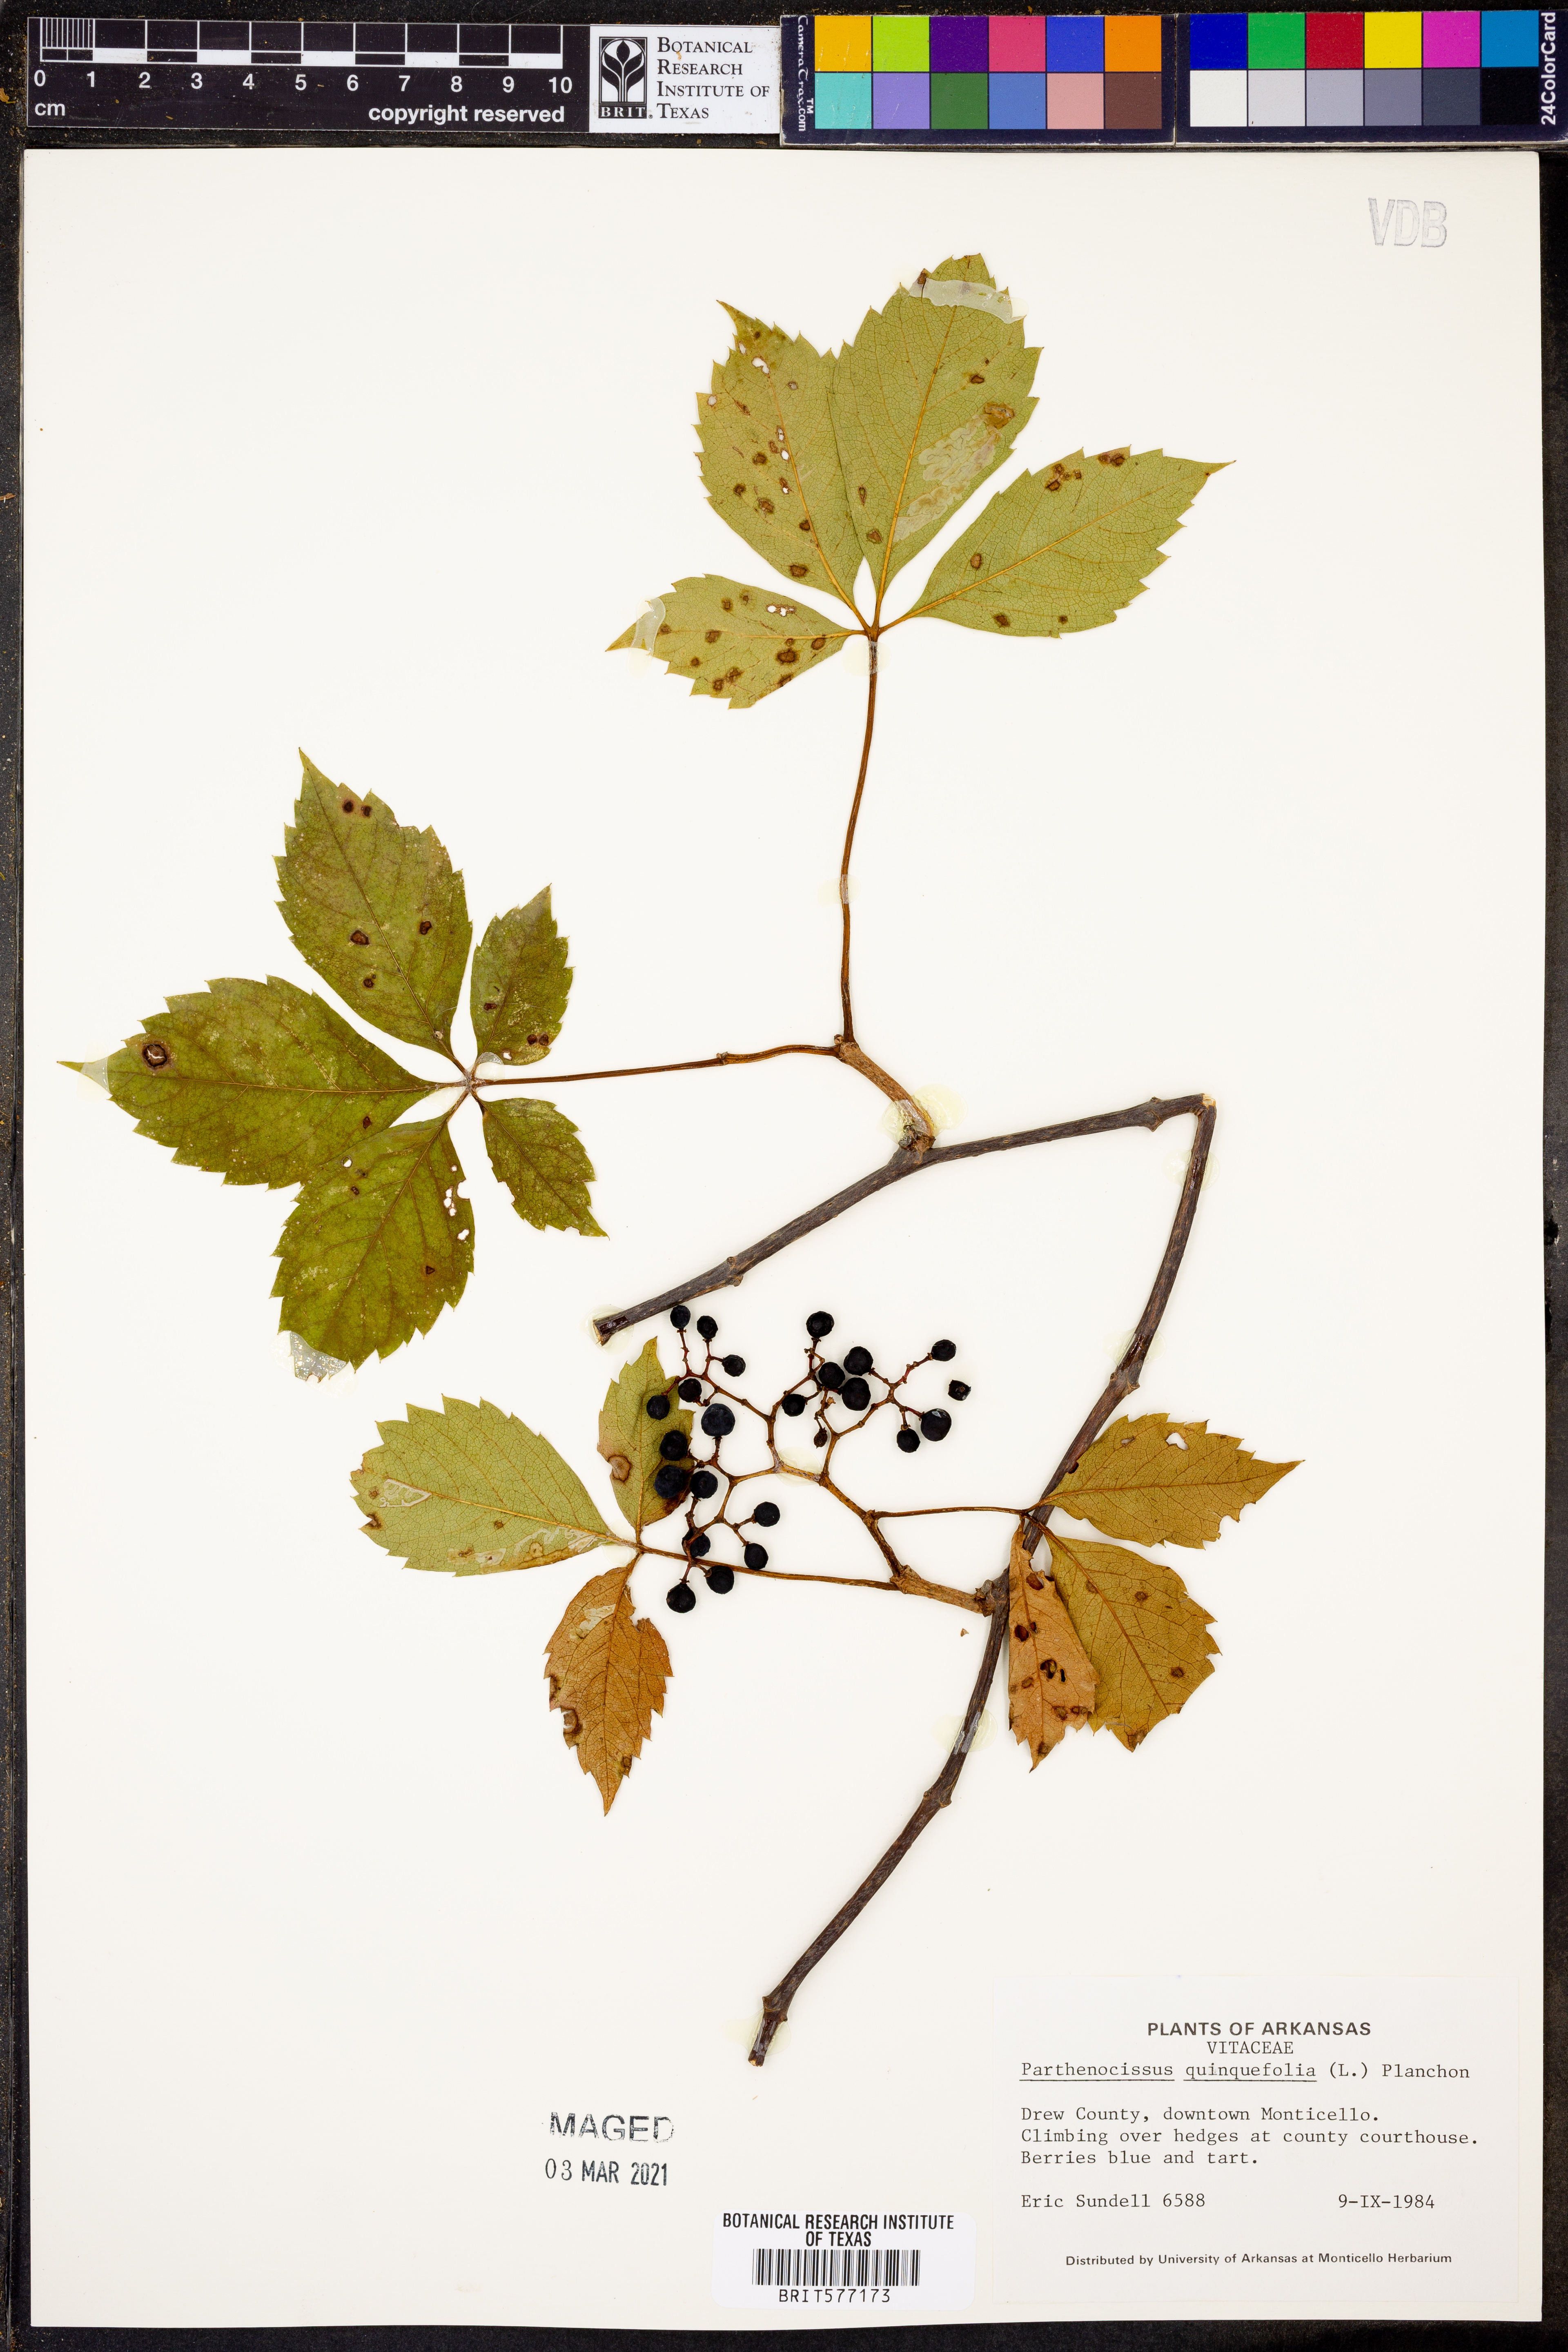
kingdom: Plantae
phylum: Tracheophyta
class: Magnoliopsida
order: Vitales
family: Vitaceae
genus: Parthenocissus
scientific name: Parthenocissus quinquefolia
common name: Virginia-creeper
